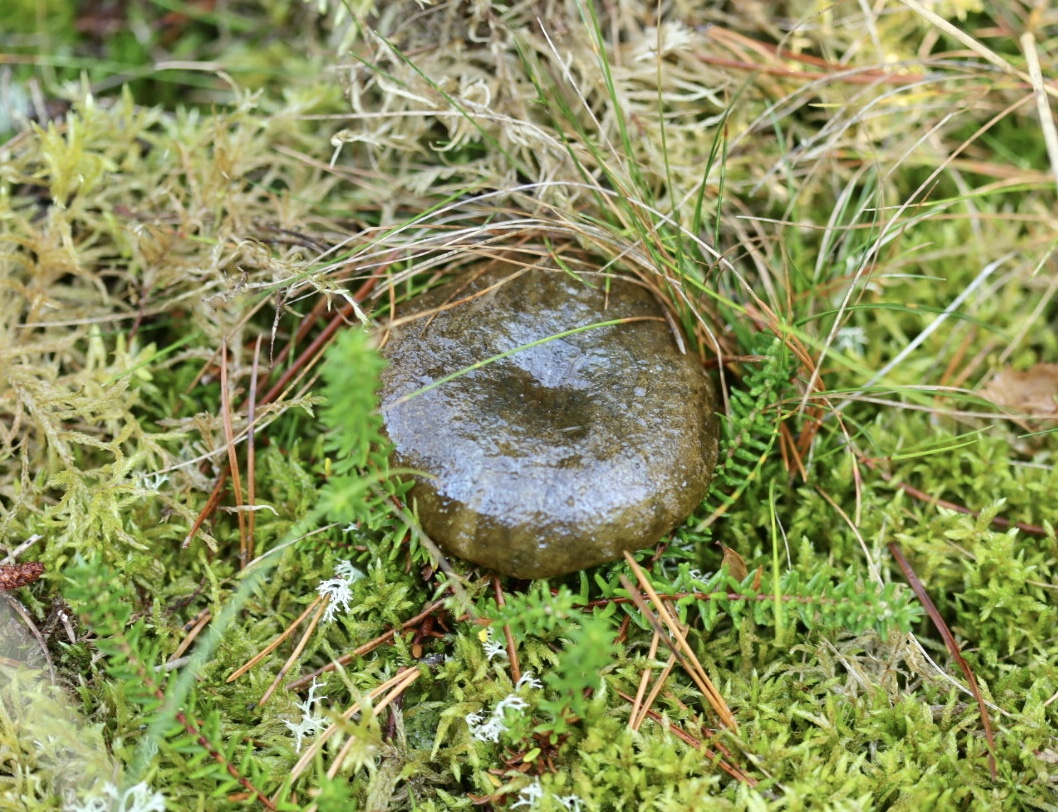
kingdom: Fungi
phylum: Basidiomycota
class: Agaricomycetes
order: Russulales
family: Russulaceae
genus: Lactarius
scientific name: Lactarius necator
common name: manddraber-mælkehat
